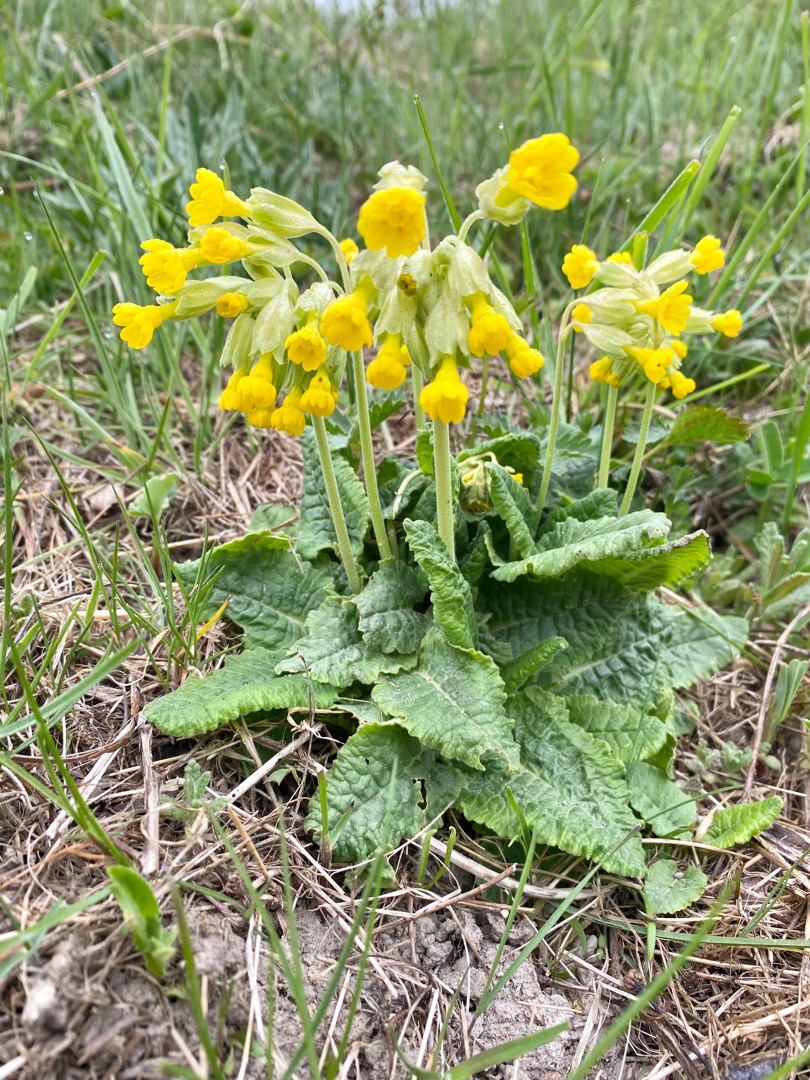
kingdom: Plantae
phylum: Tracheophyta
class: Magnoliopsida
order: Ericales
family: Primulaceae
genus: Primula
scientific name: Primula veris
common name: Hulkravet kodriver
